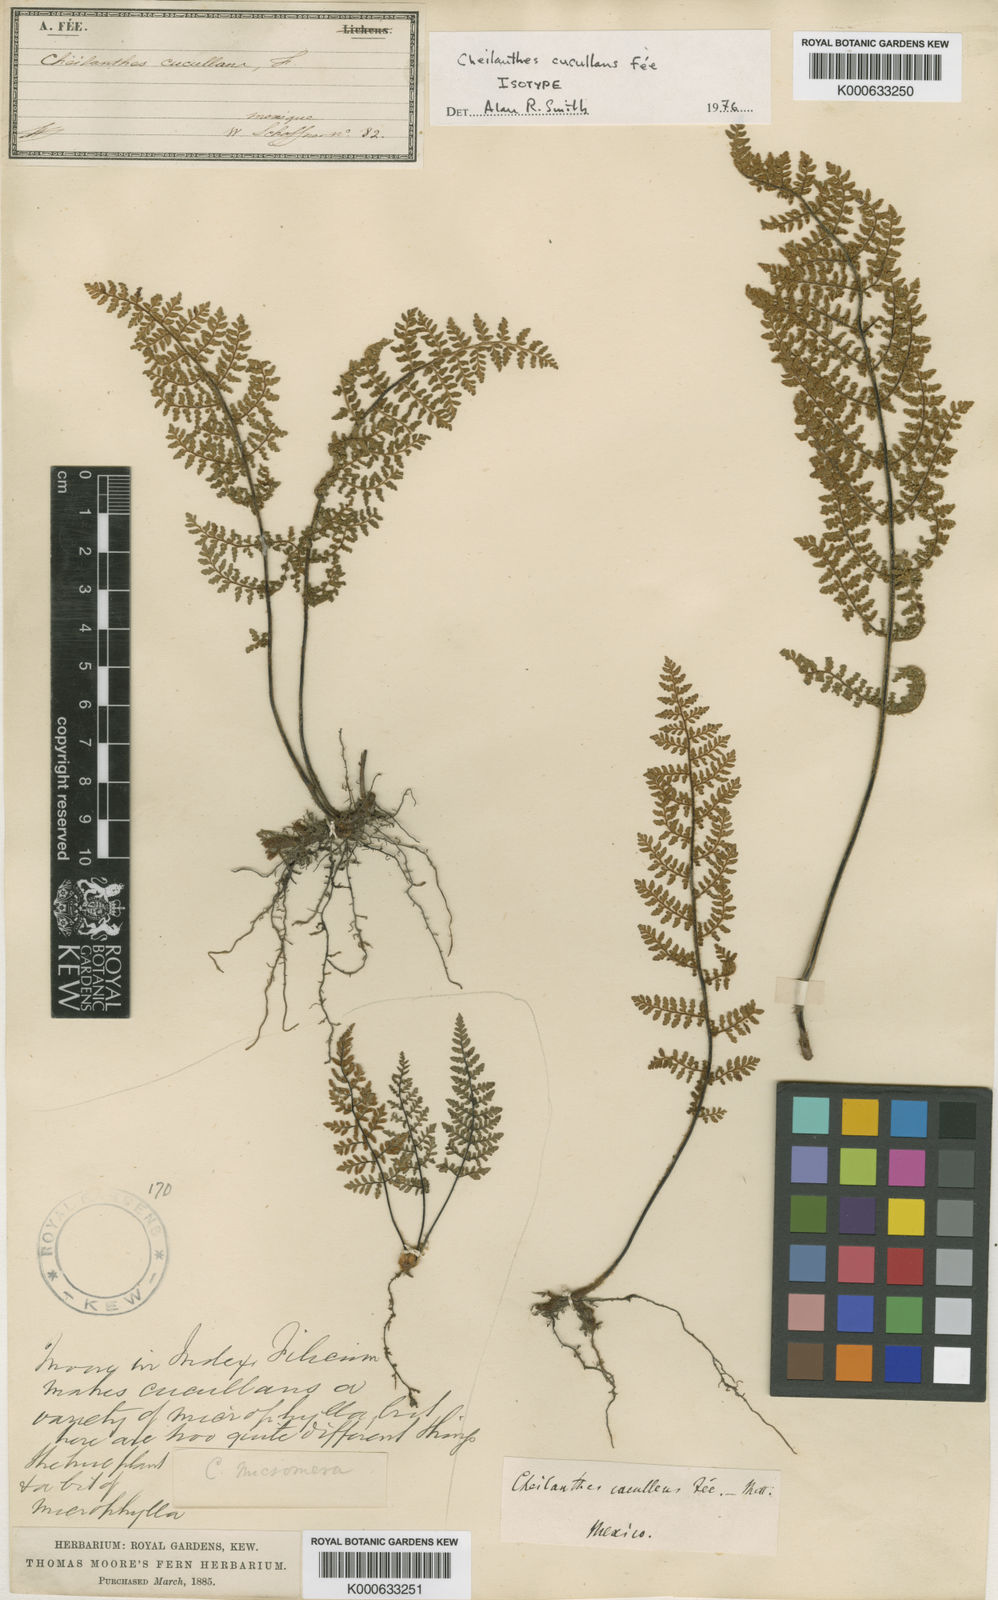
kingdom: Plantae
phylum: Tracheophyta
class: Polypodiopsida
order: Polypodiales
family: Pteridaceae
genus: Cheilanthes
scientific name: Cheilanthes
